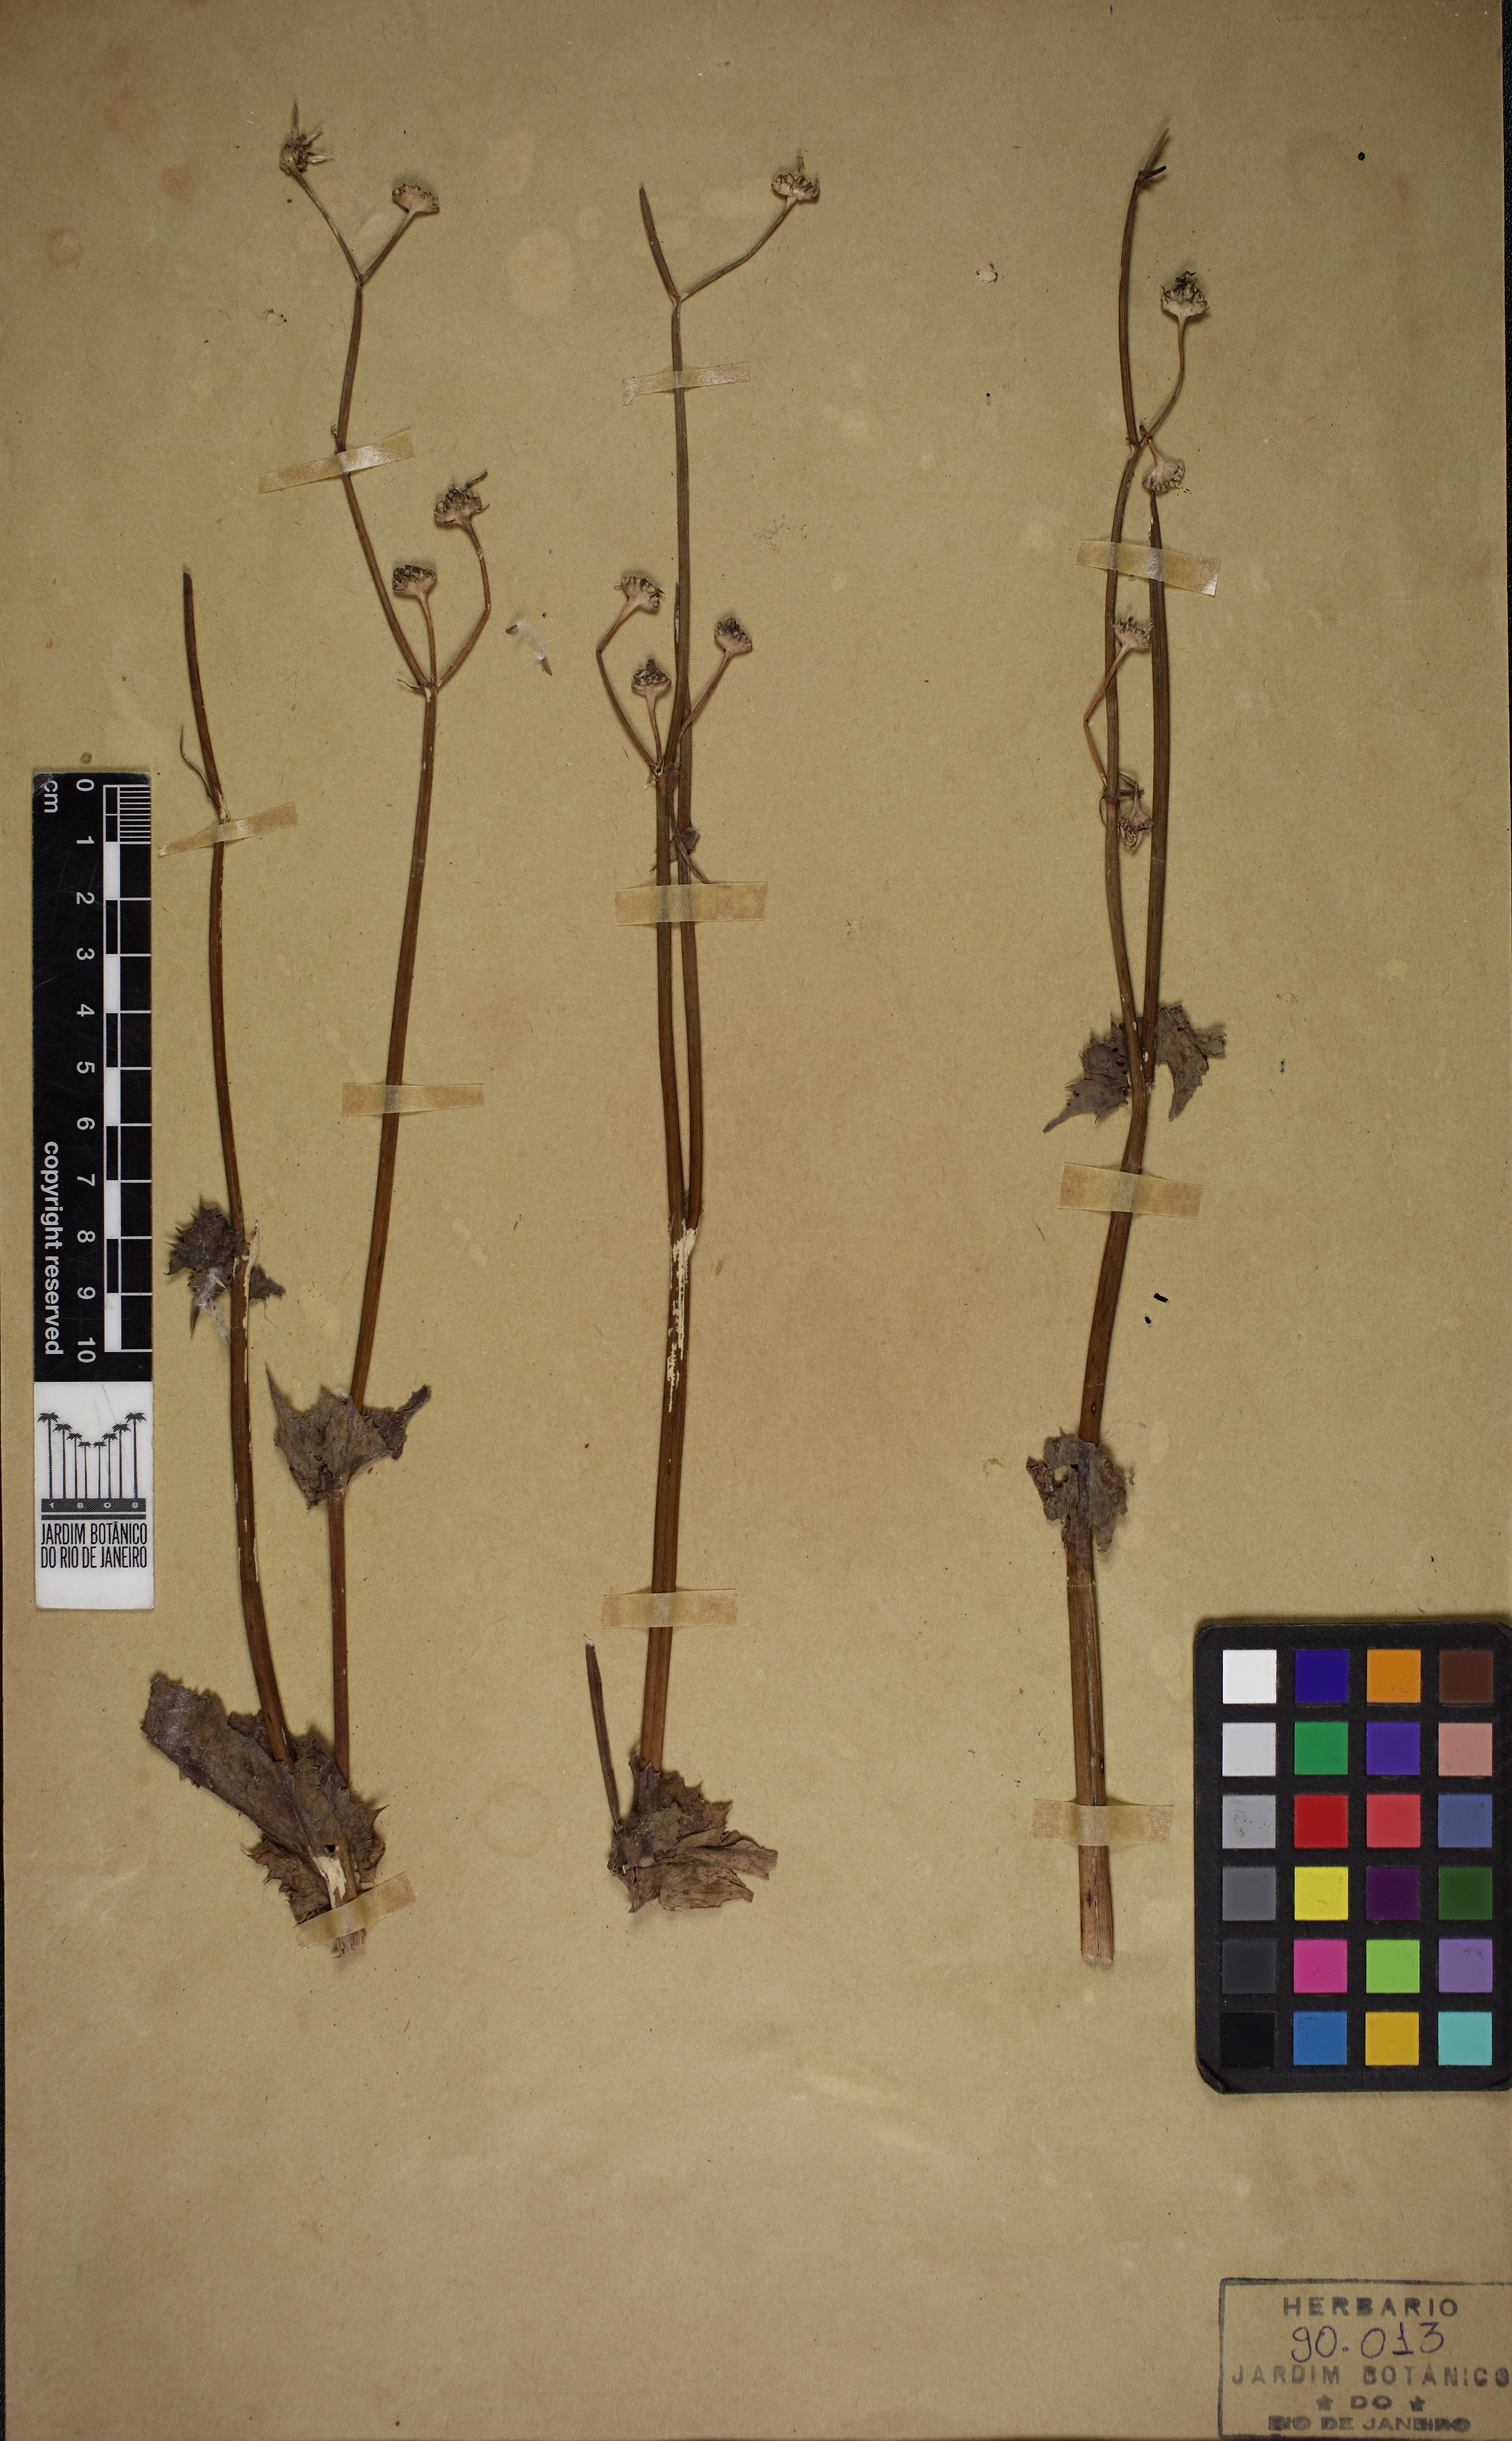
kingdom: Plantae
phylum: Tracheophyta
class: Magnoliopsida
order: Asterales
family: Asteraceae
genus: Sonchus
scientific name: Sonchus oleraceus
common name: Common sowthistle
